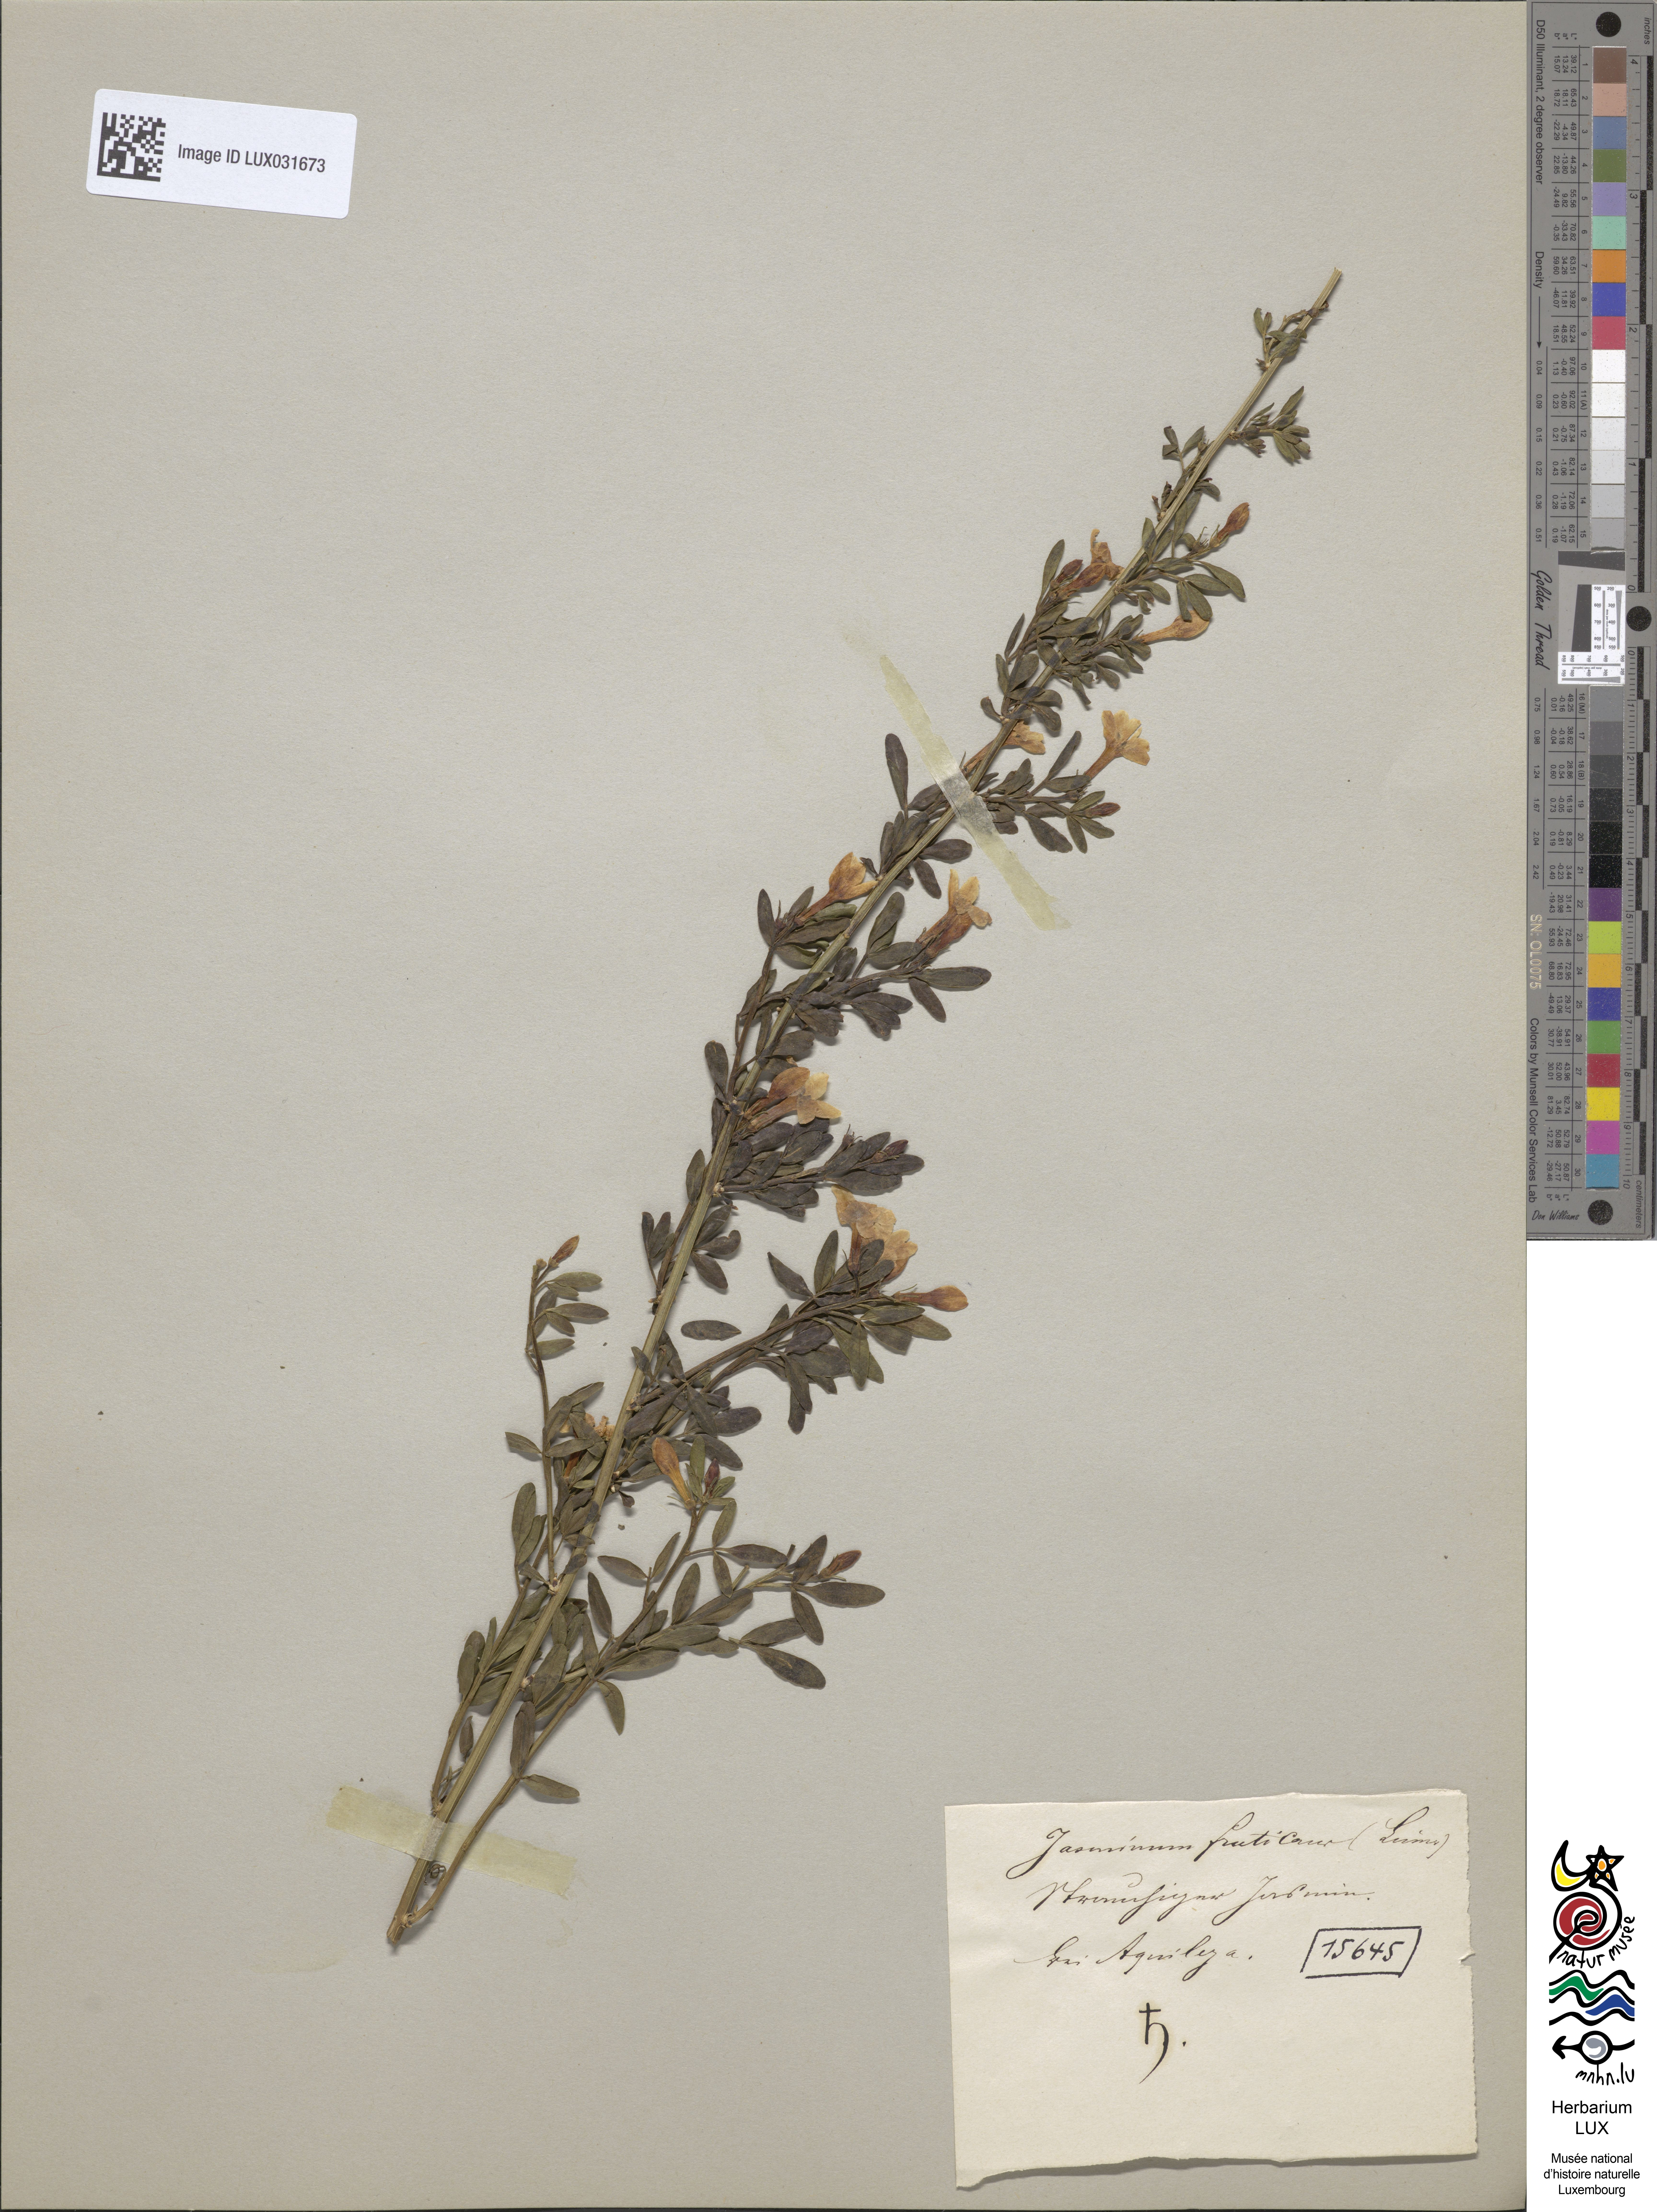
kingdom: Plantae
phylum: Tracheophyta
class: Magnoliopsida
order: Lamiales
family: Oleaceae
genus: Chrysojasminum
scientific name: Chrysojasminum fruticans
